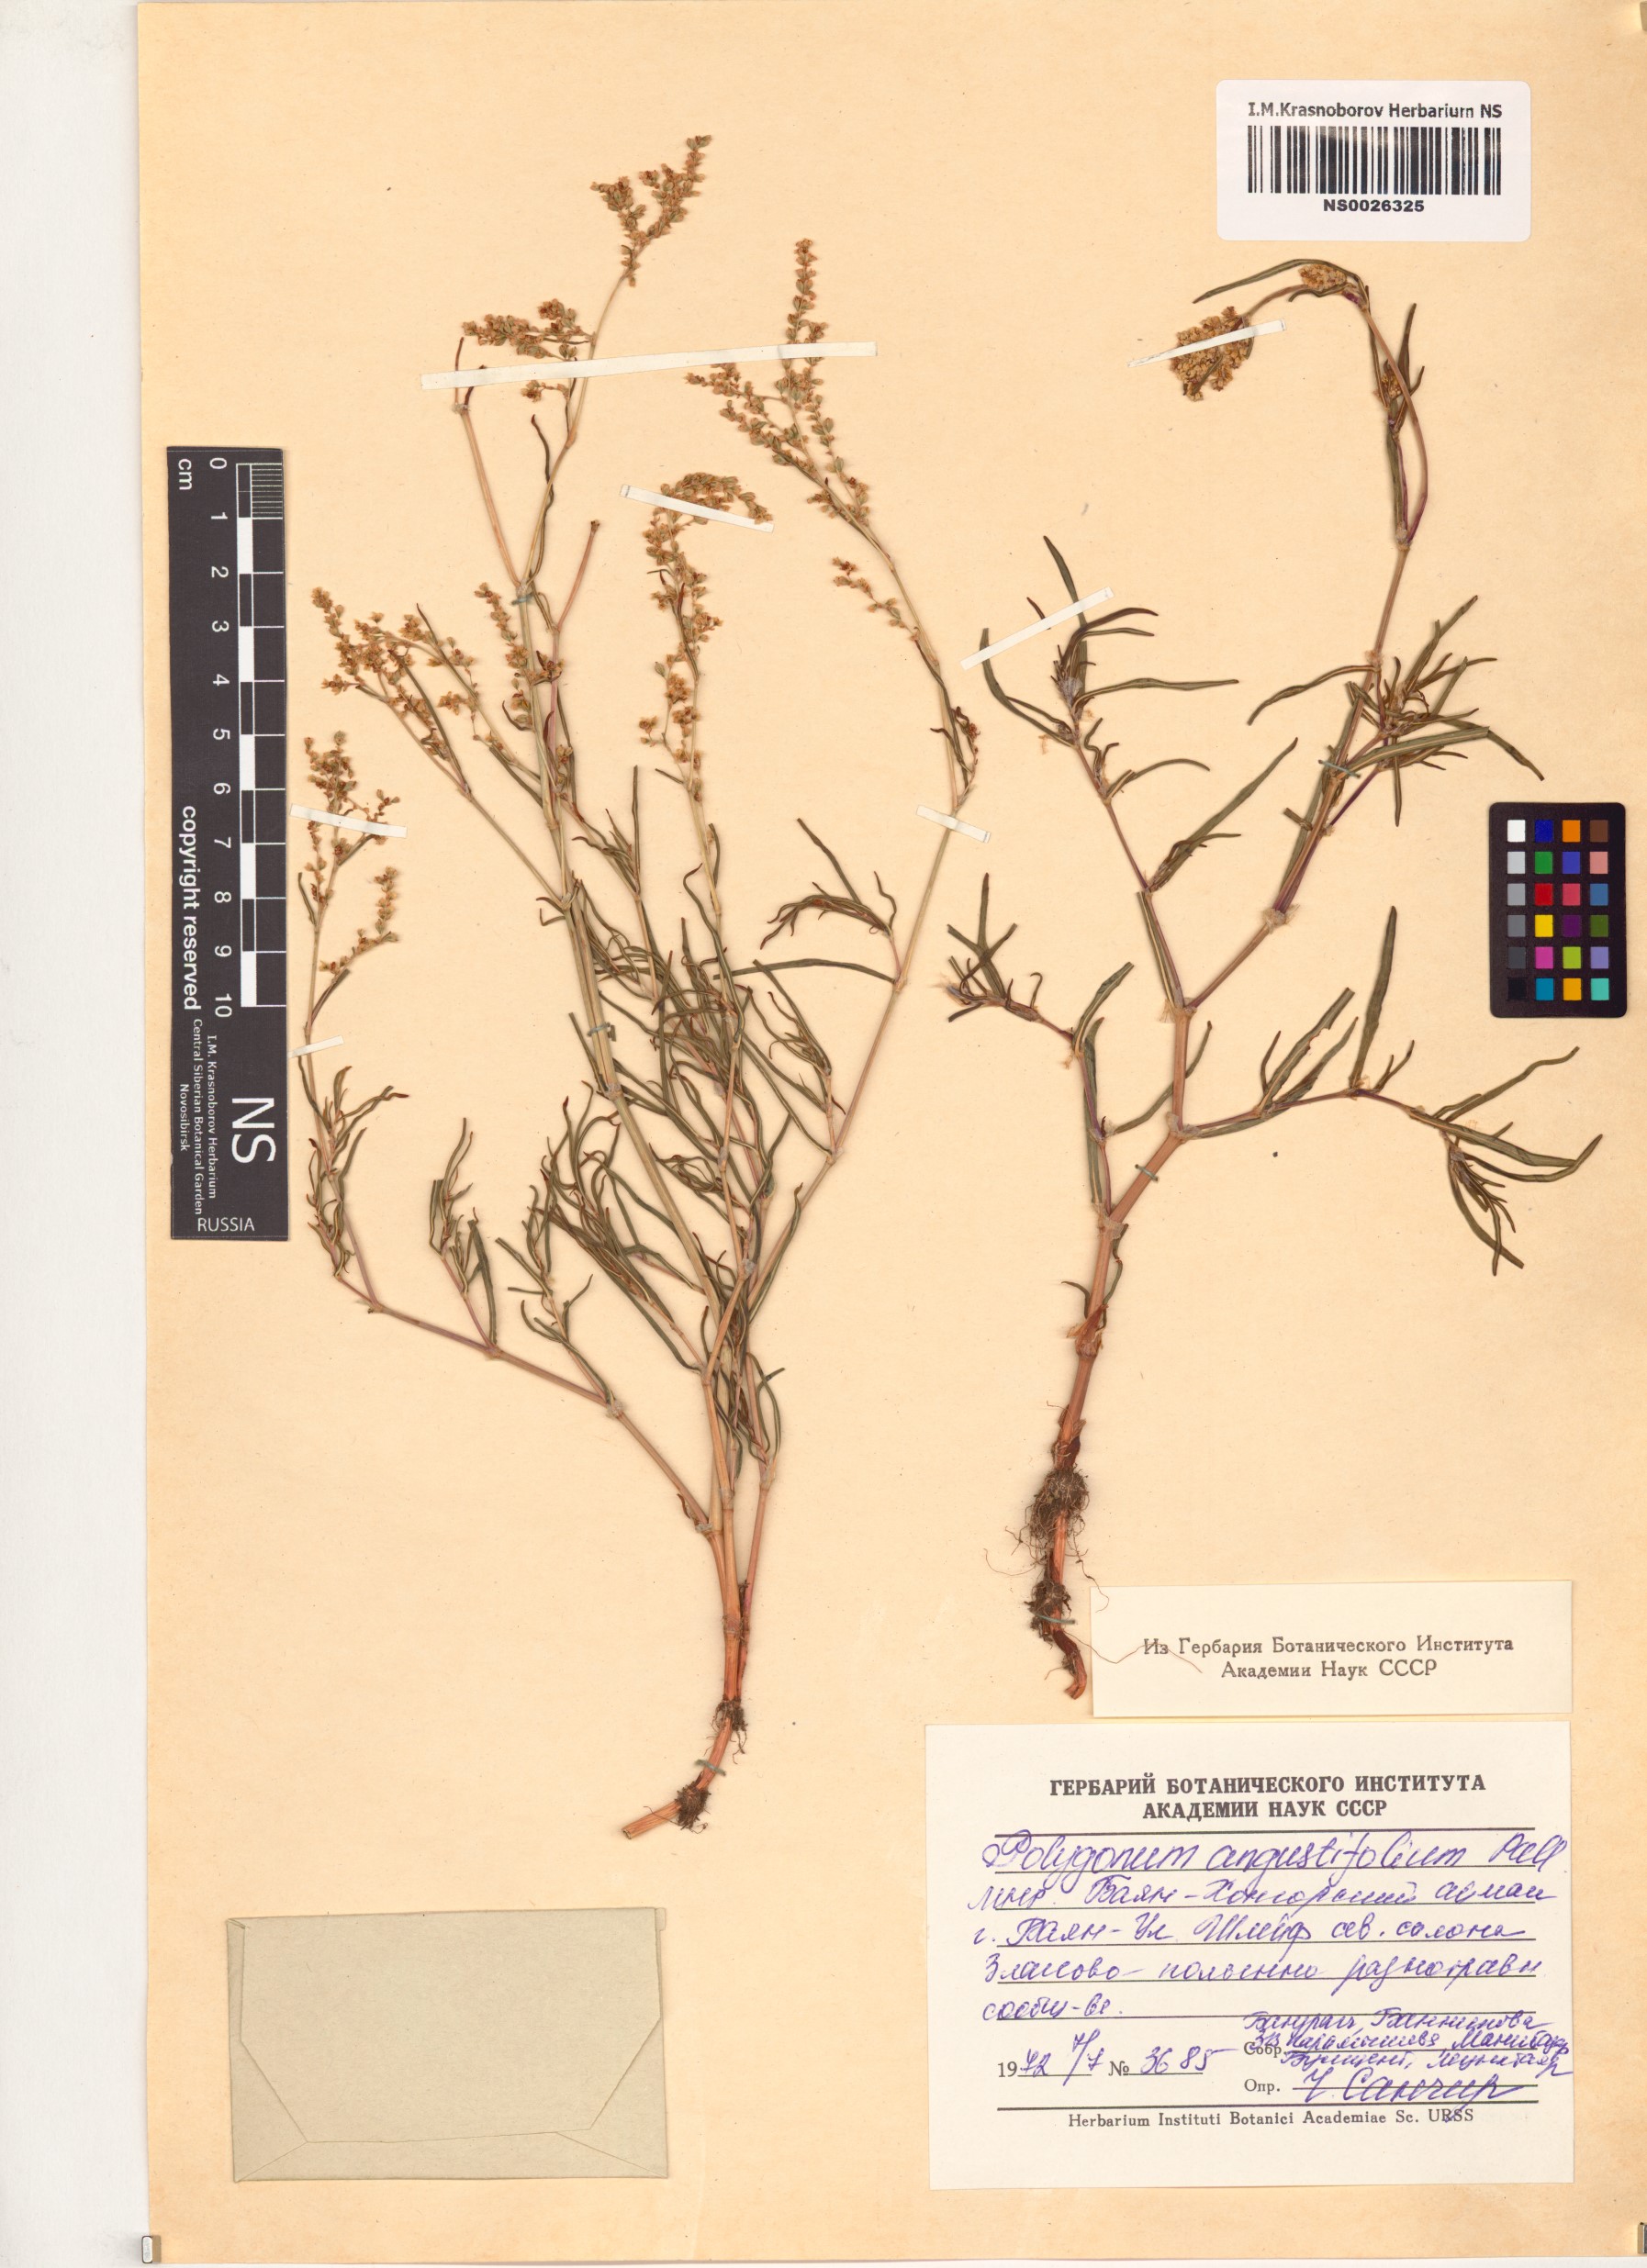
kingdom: Plantae
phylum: Tracheophyta
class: Magnoliopsida
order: Caryophyllales
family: Polygonaceae
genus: Persicaria
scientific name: Persicaria angustifolia
